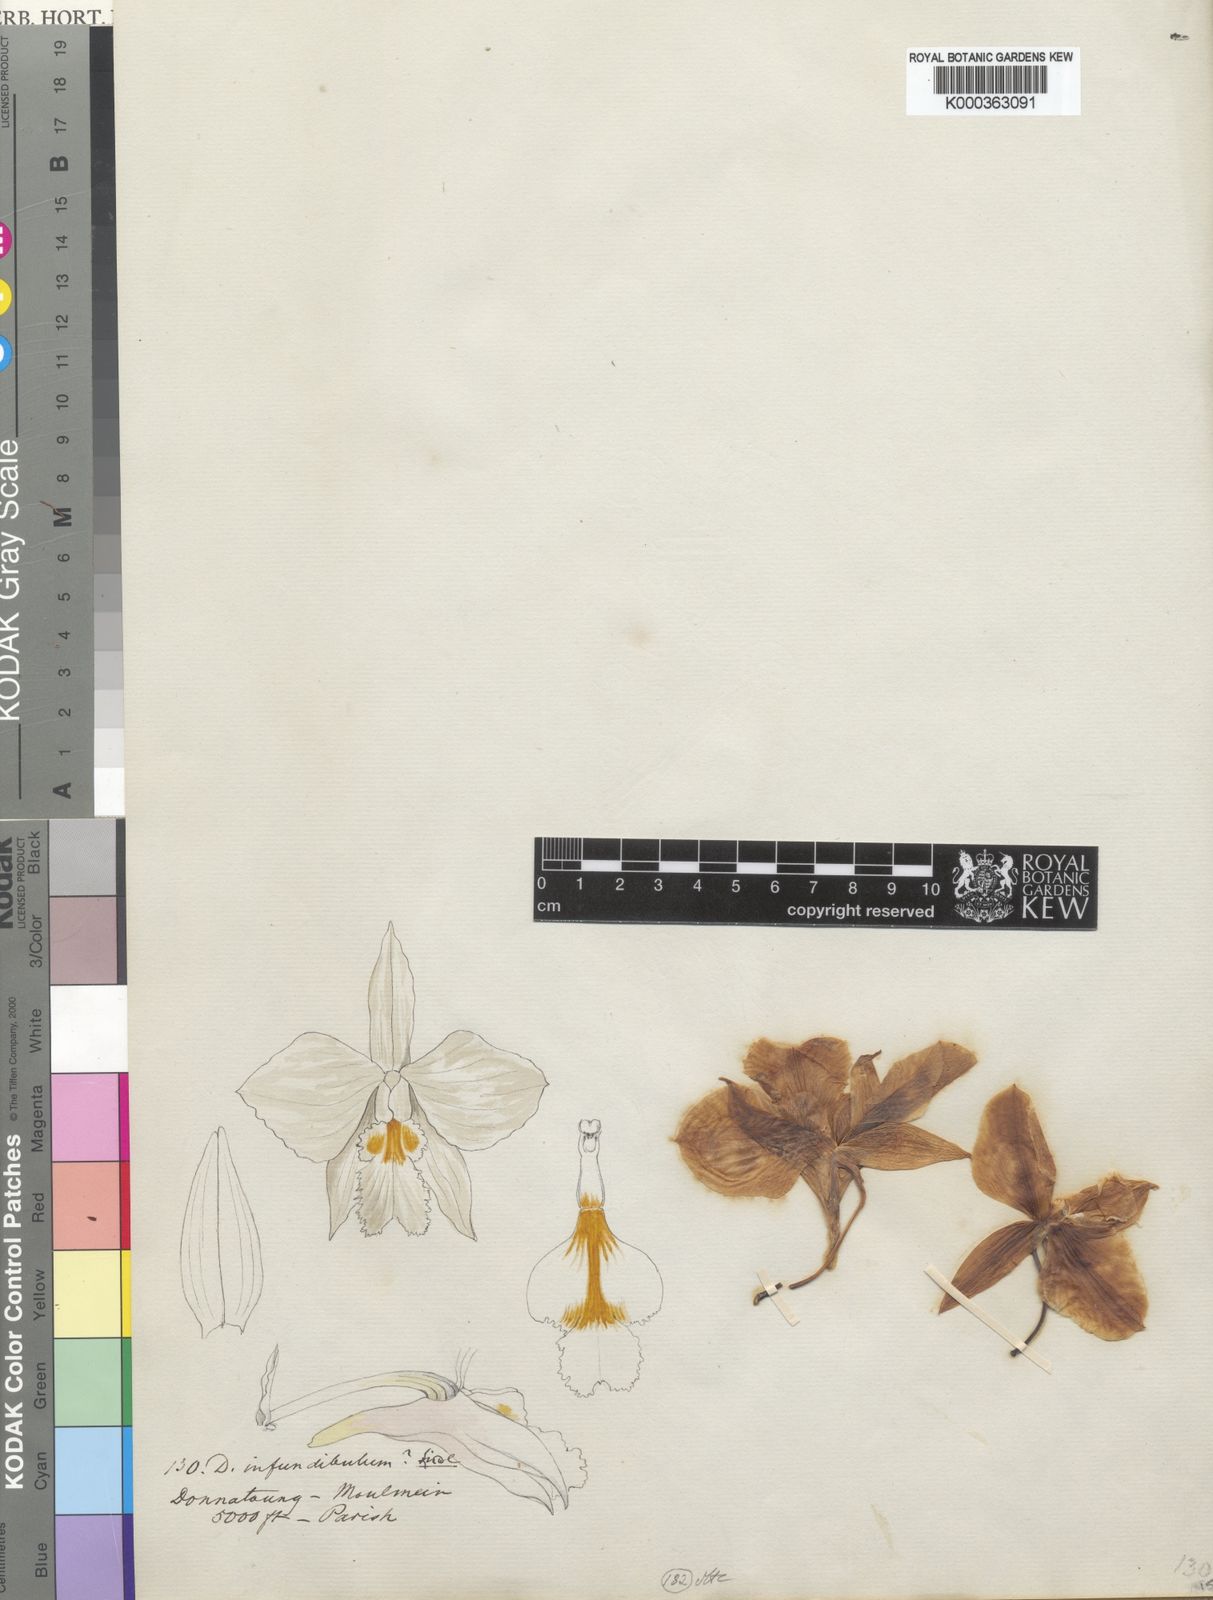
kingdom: Plantae
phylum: Tracheophyta
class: Liliopsida
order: Asparagales
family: Orchidaceae
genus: Dendrobium
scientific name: Dendrobium infundibulum
